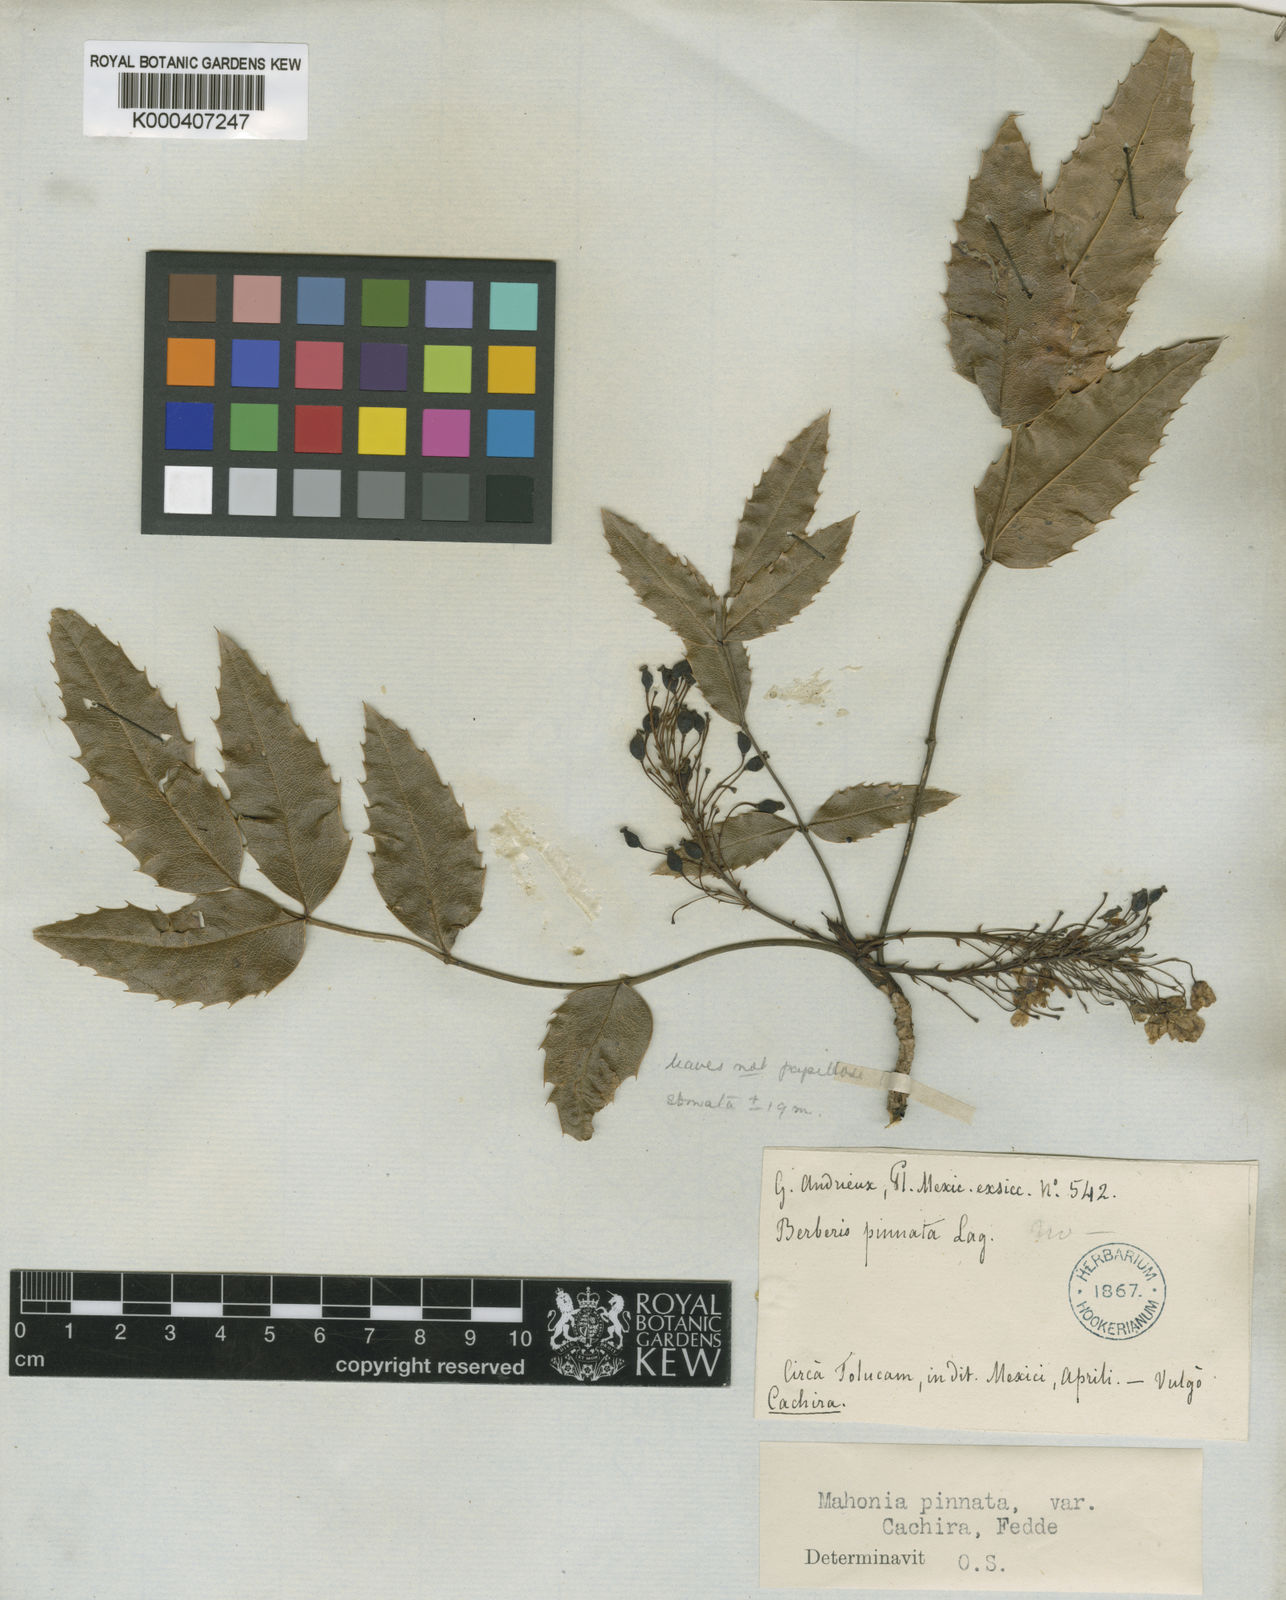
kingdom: Plantae
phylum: Tracheophyta
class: Magnoliopsida
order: Ranunculales
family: Berberidaceae
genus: Mahonia
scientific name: Mahonia moranensis
